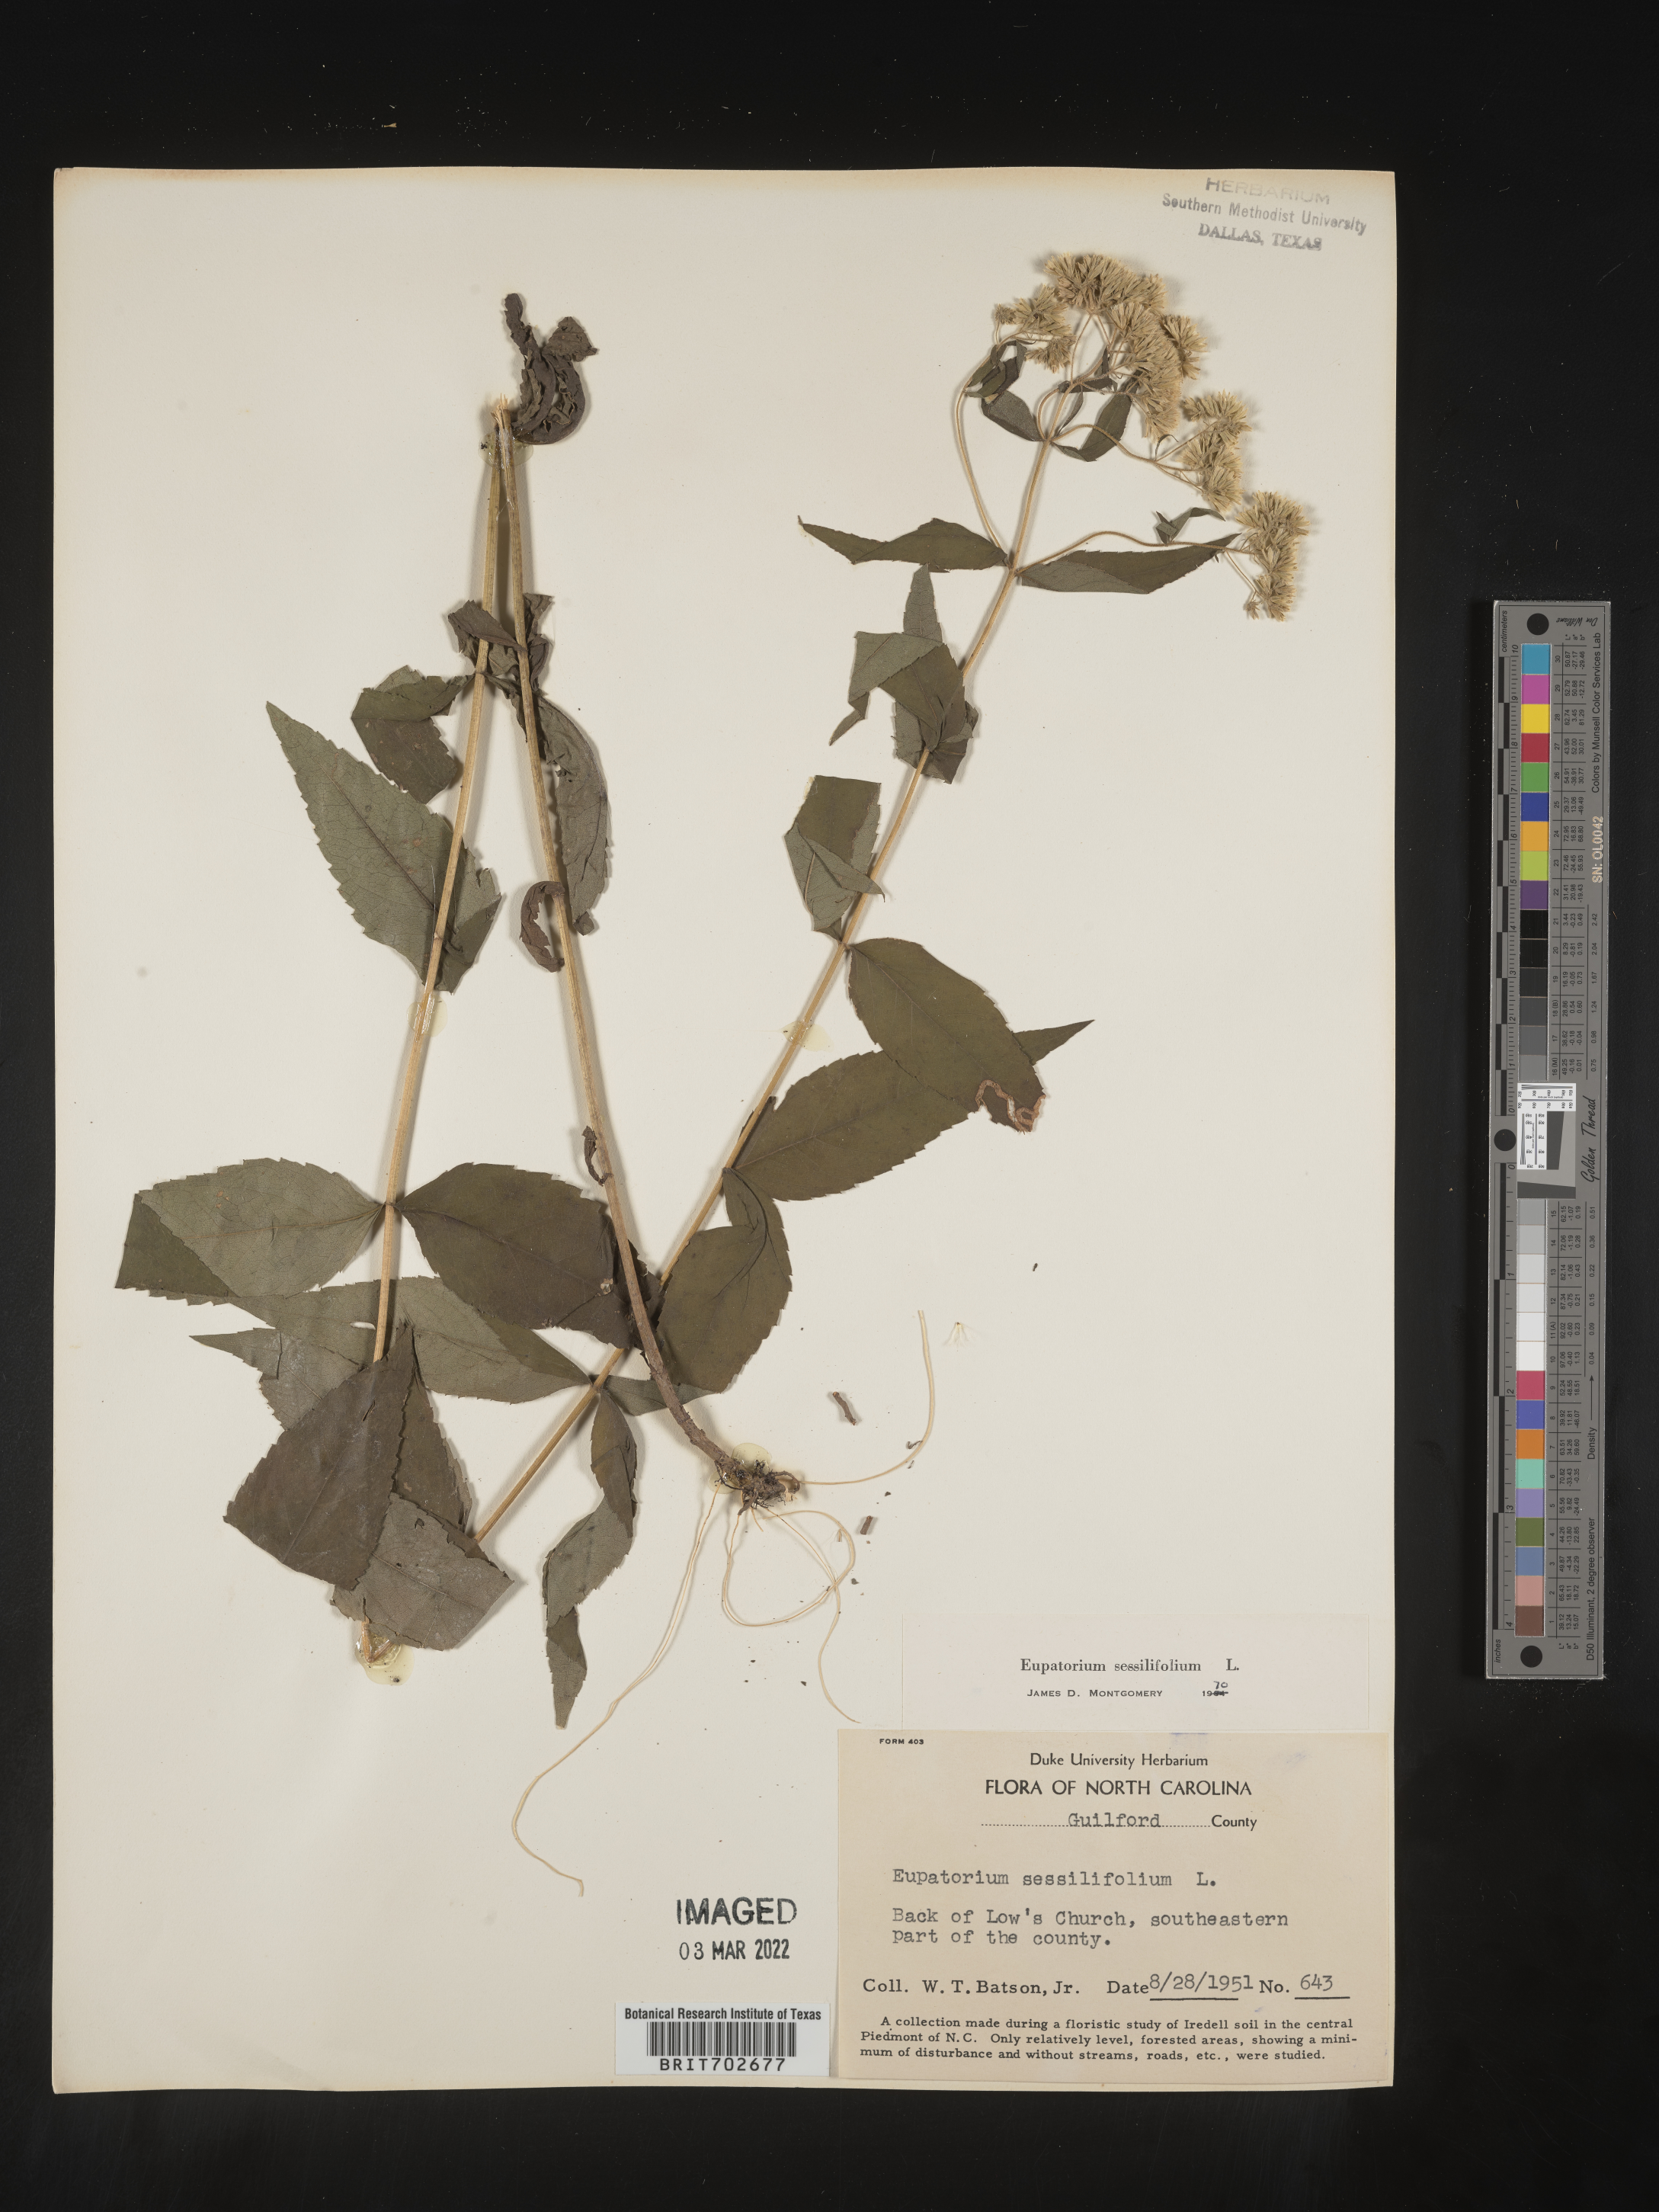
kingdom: Plantae
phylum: Tracheophyta
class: Magnoliopsida
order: Asterales
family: Asteraceae
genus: Eupatorium
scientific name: Eupatorium sessilifolium
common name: Upland boneset
